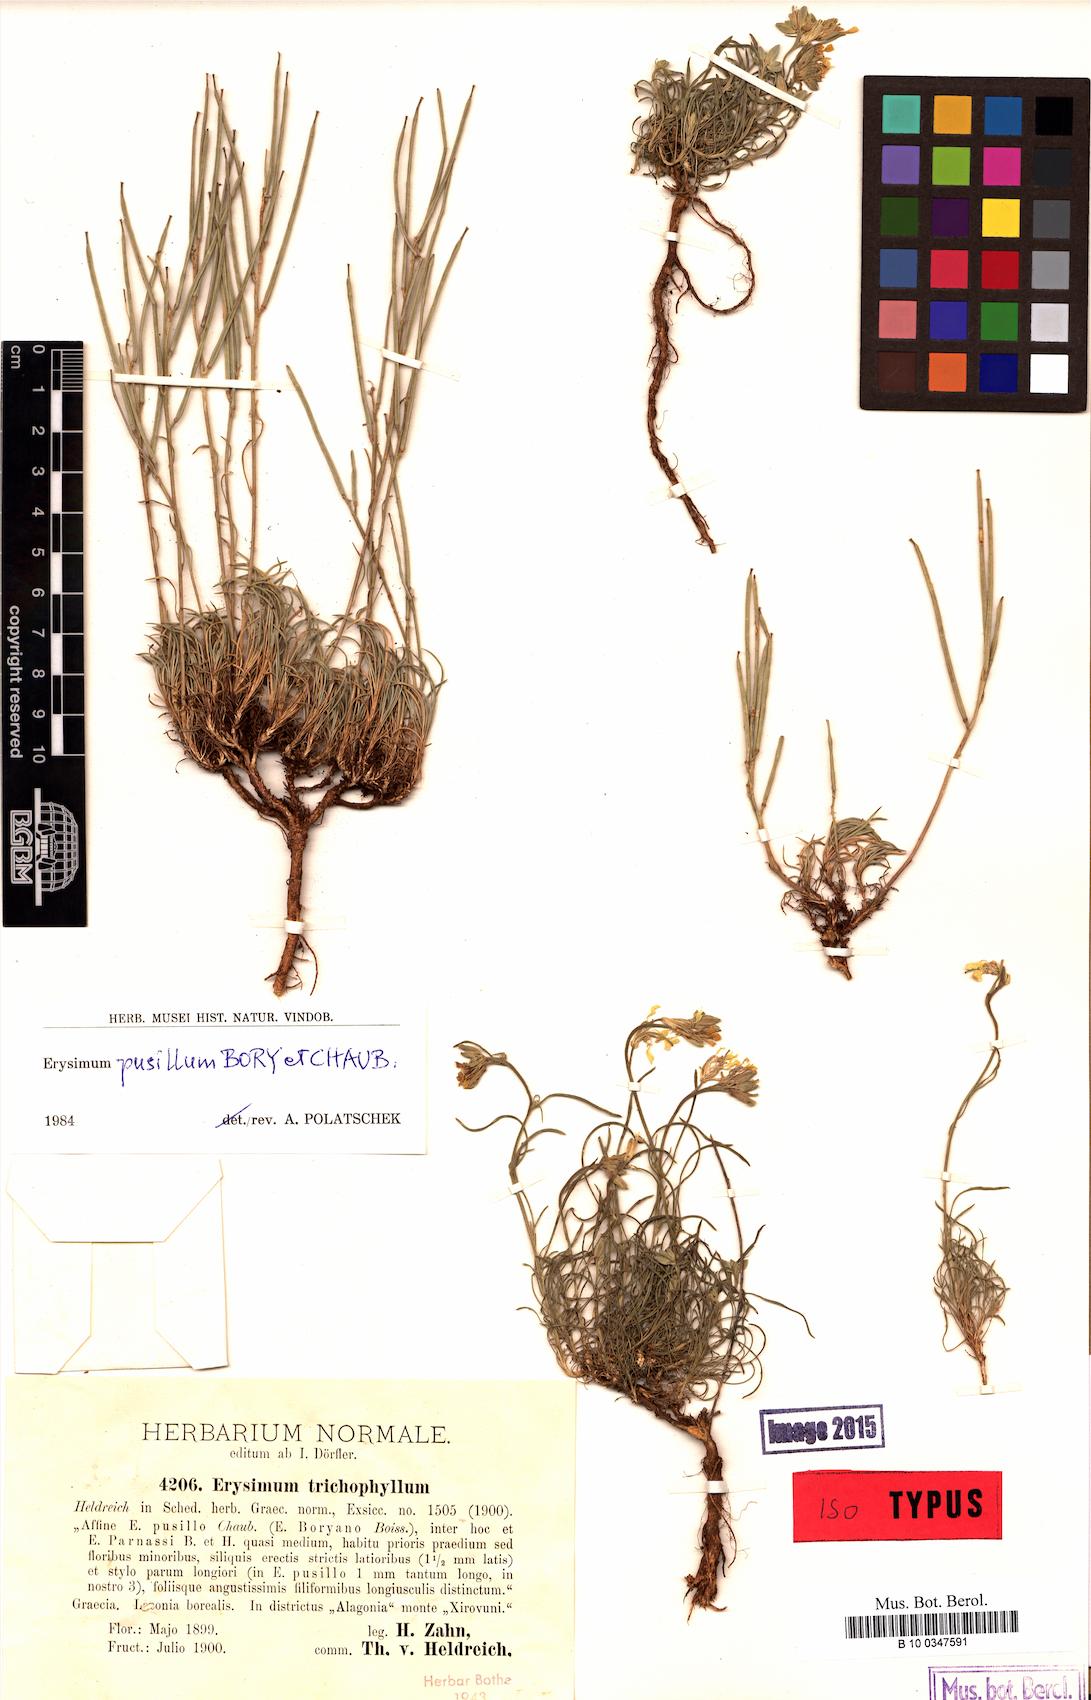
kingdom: Plantae
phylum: Tracheophyta
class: Magnoliopsida
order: Brassicales
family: Brassicaceae
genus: Erysimum
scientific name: Erysimum pusillum
